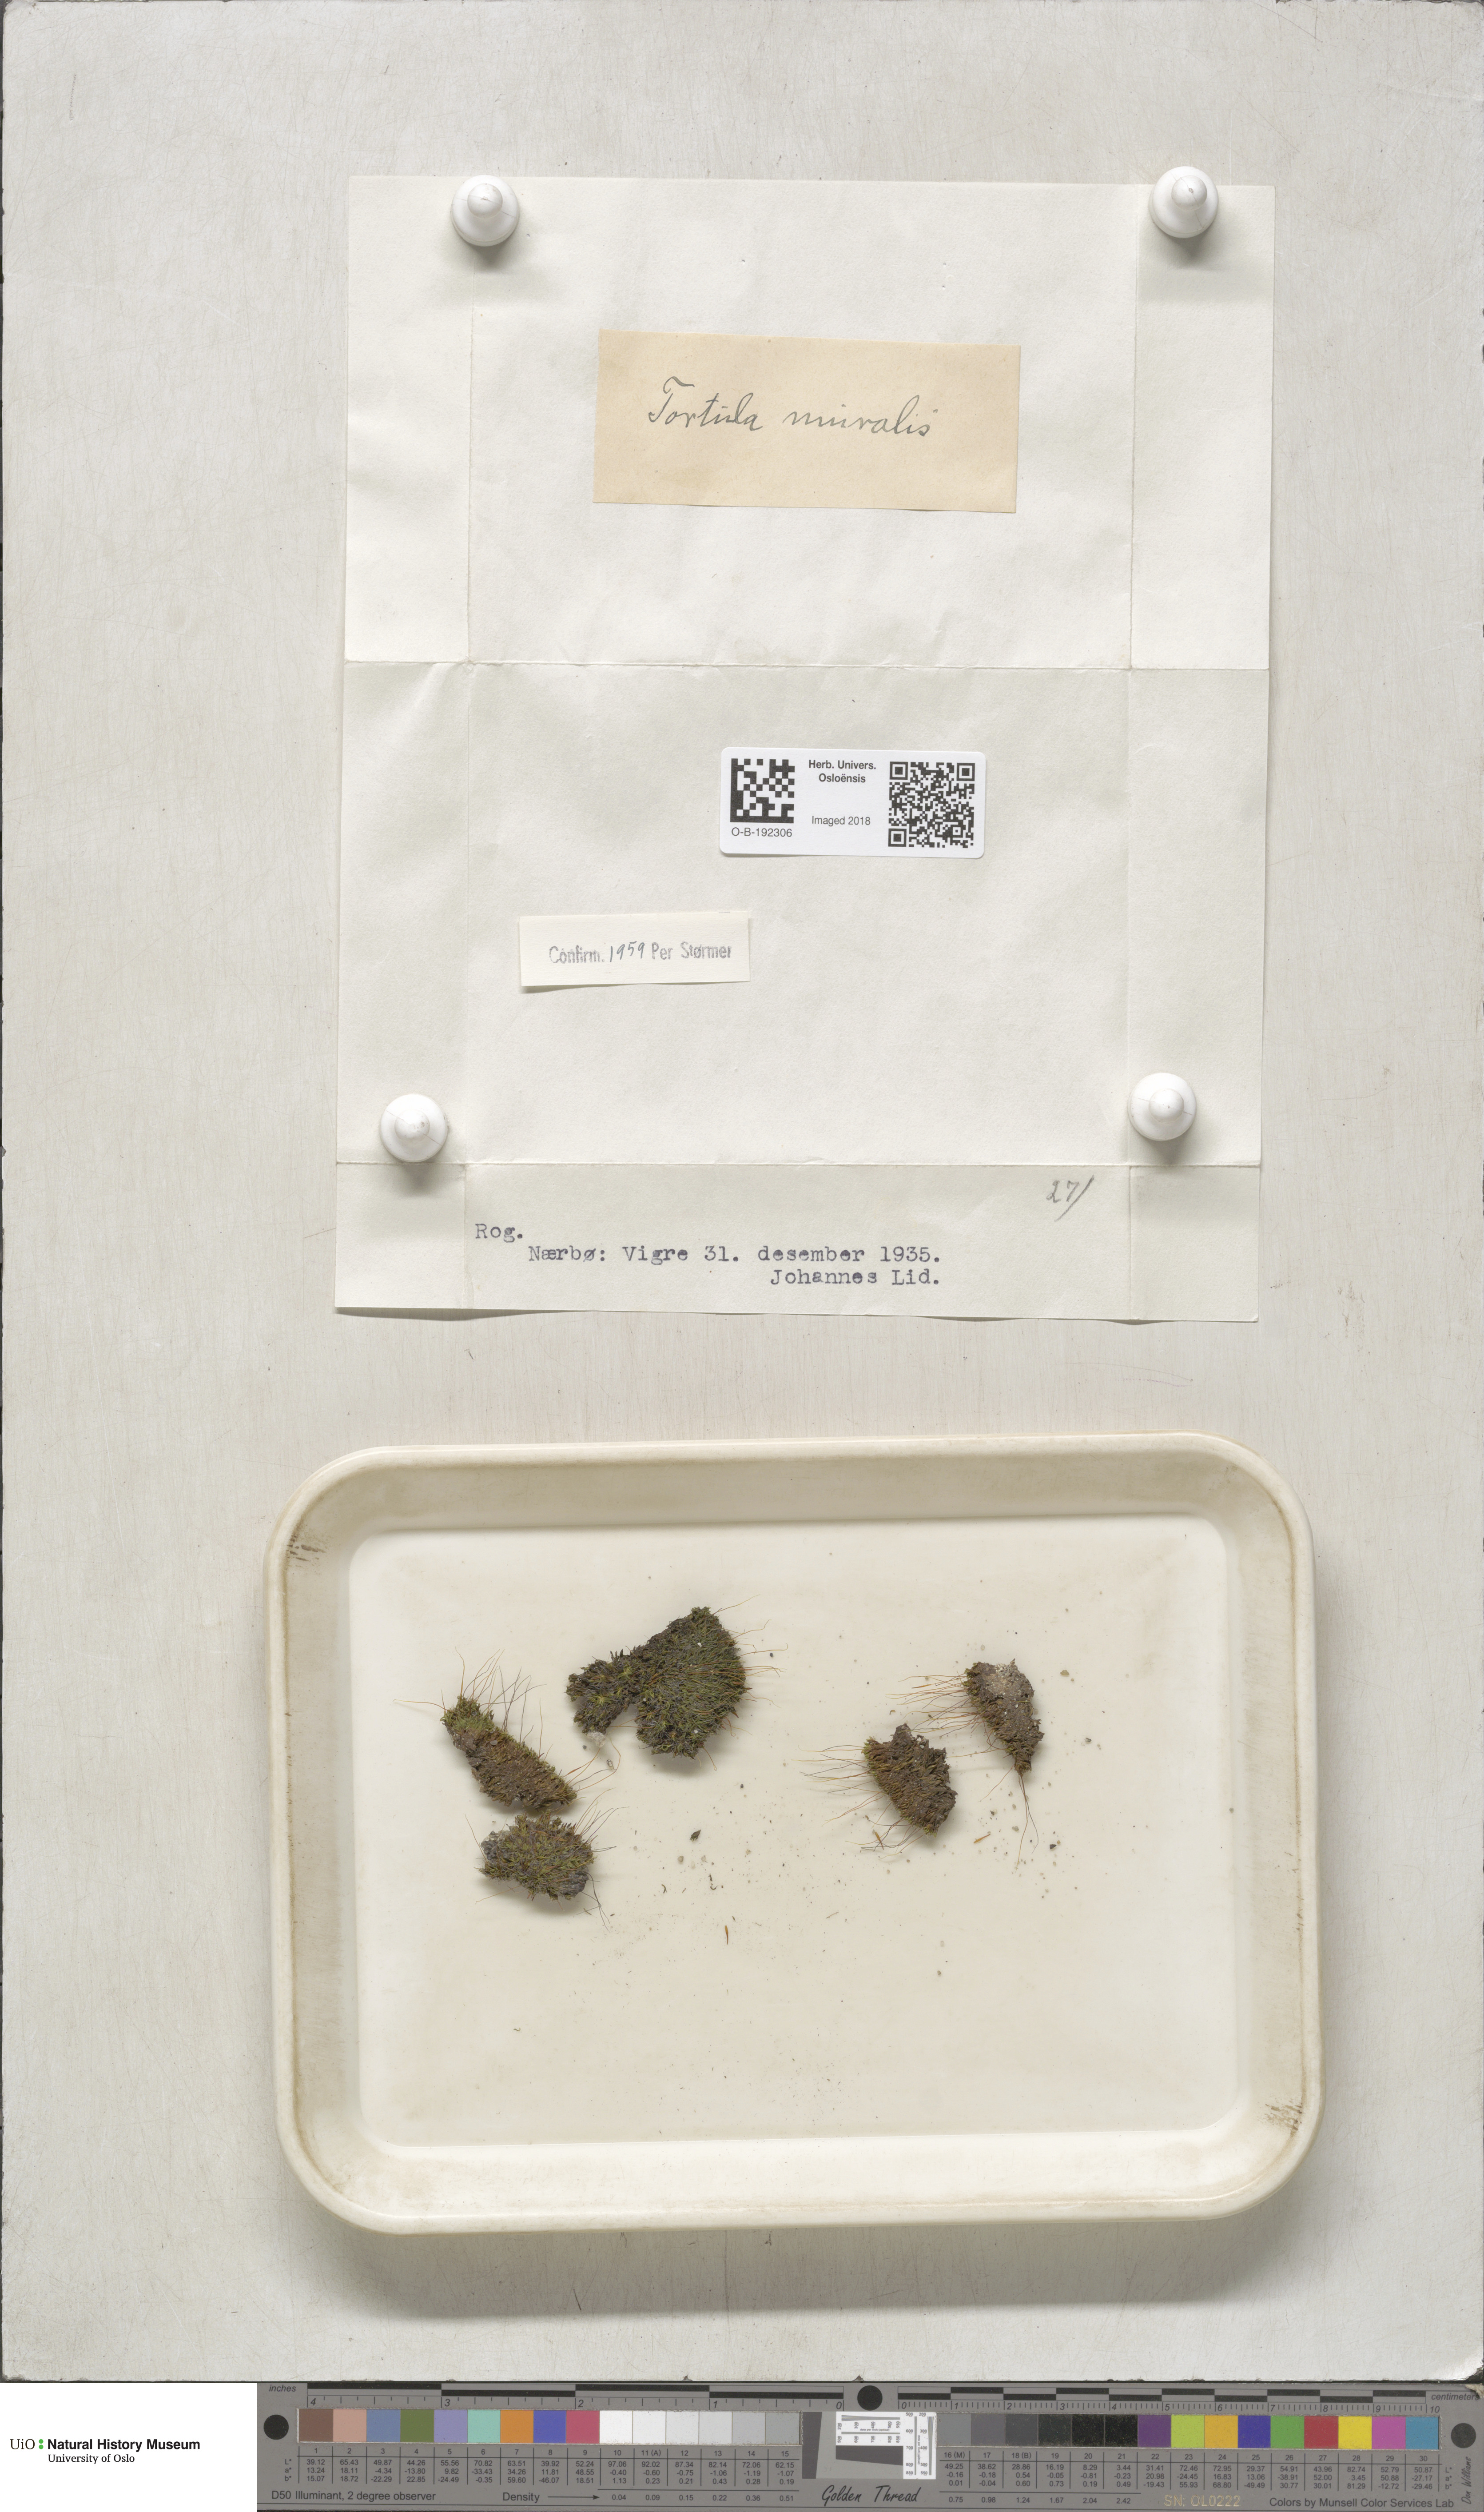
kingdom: Plantae
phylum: Bryophyta
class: Bryopsida
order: Pottiales
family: Pottiaceae
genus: Tortula
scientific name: Tortula muralis
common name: Wall screw-moss
